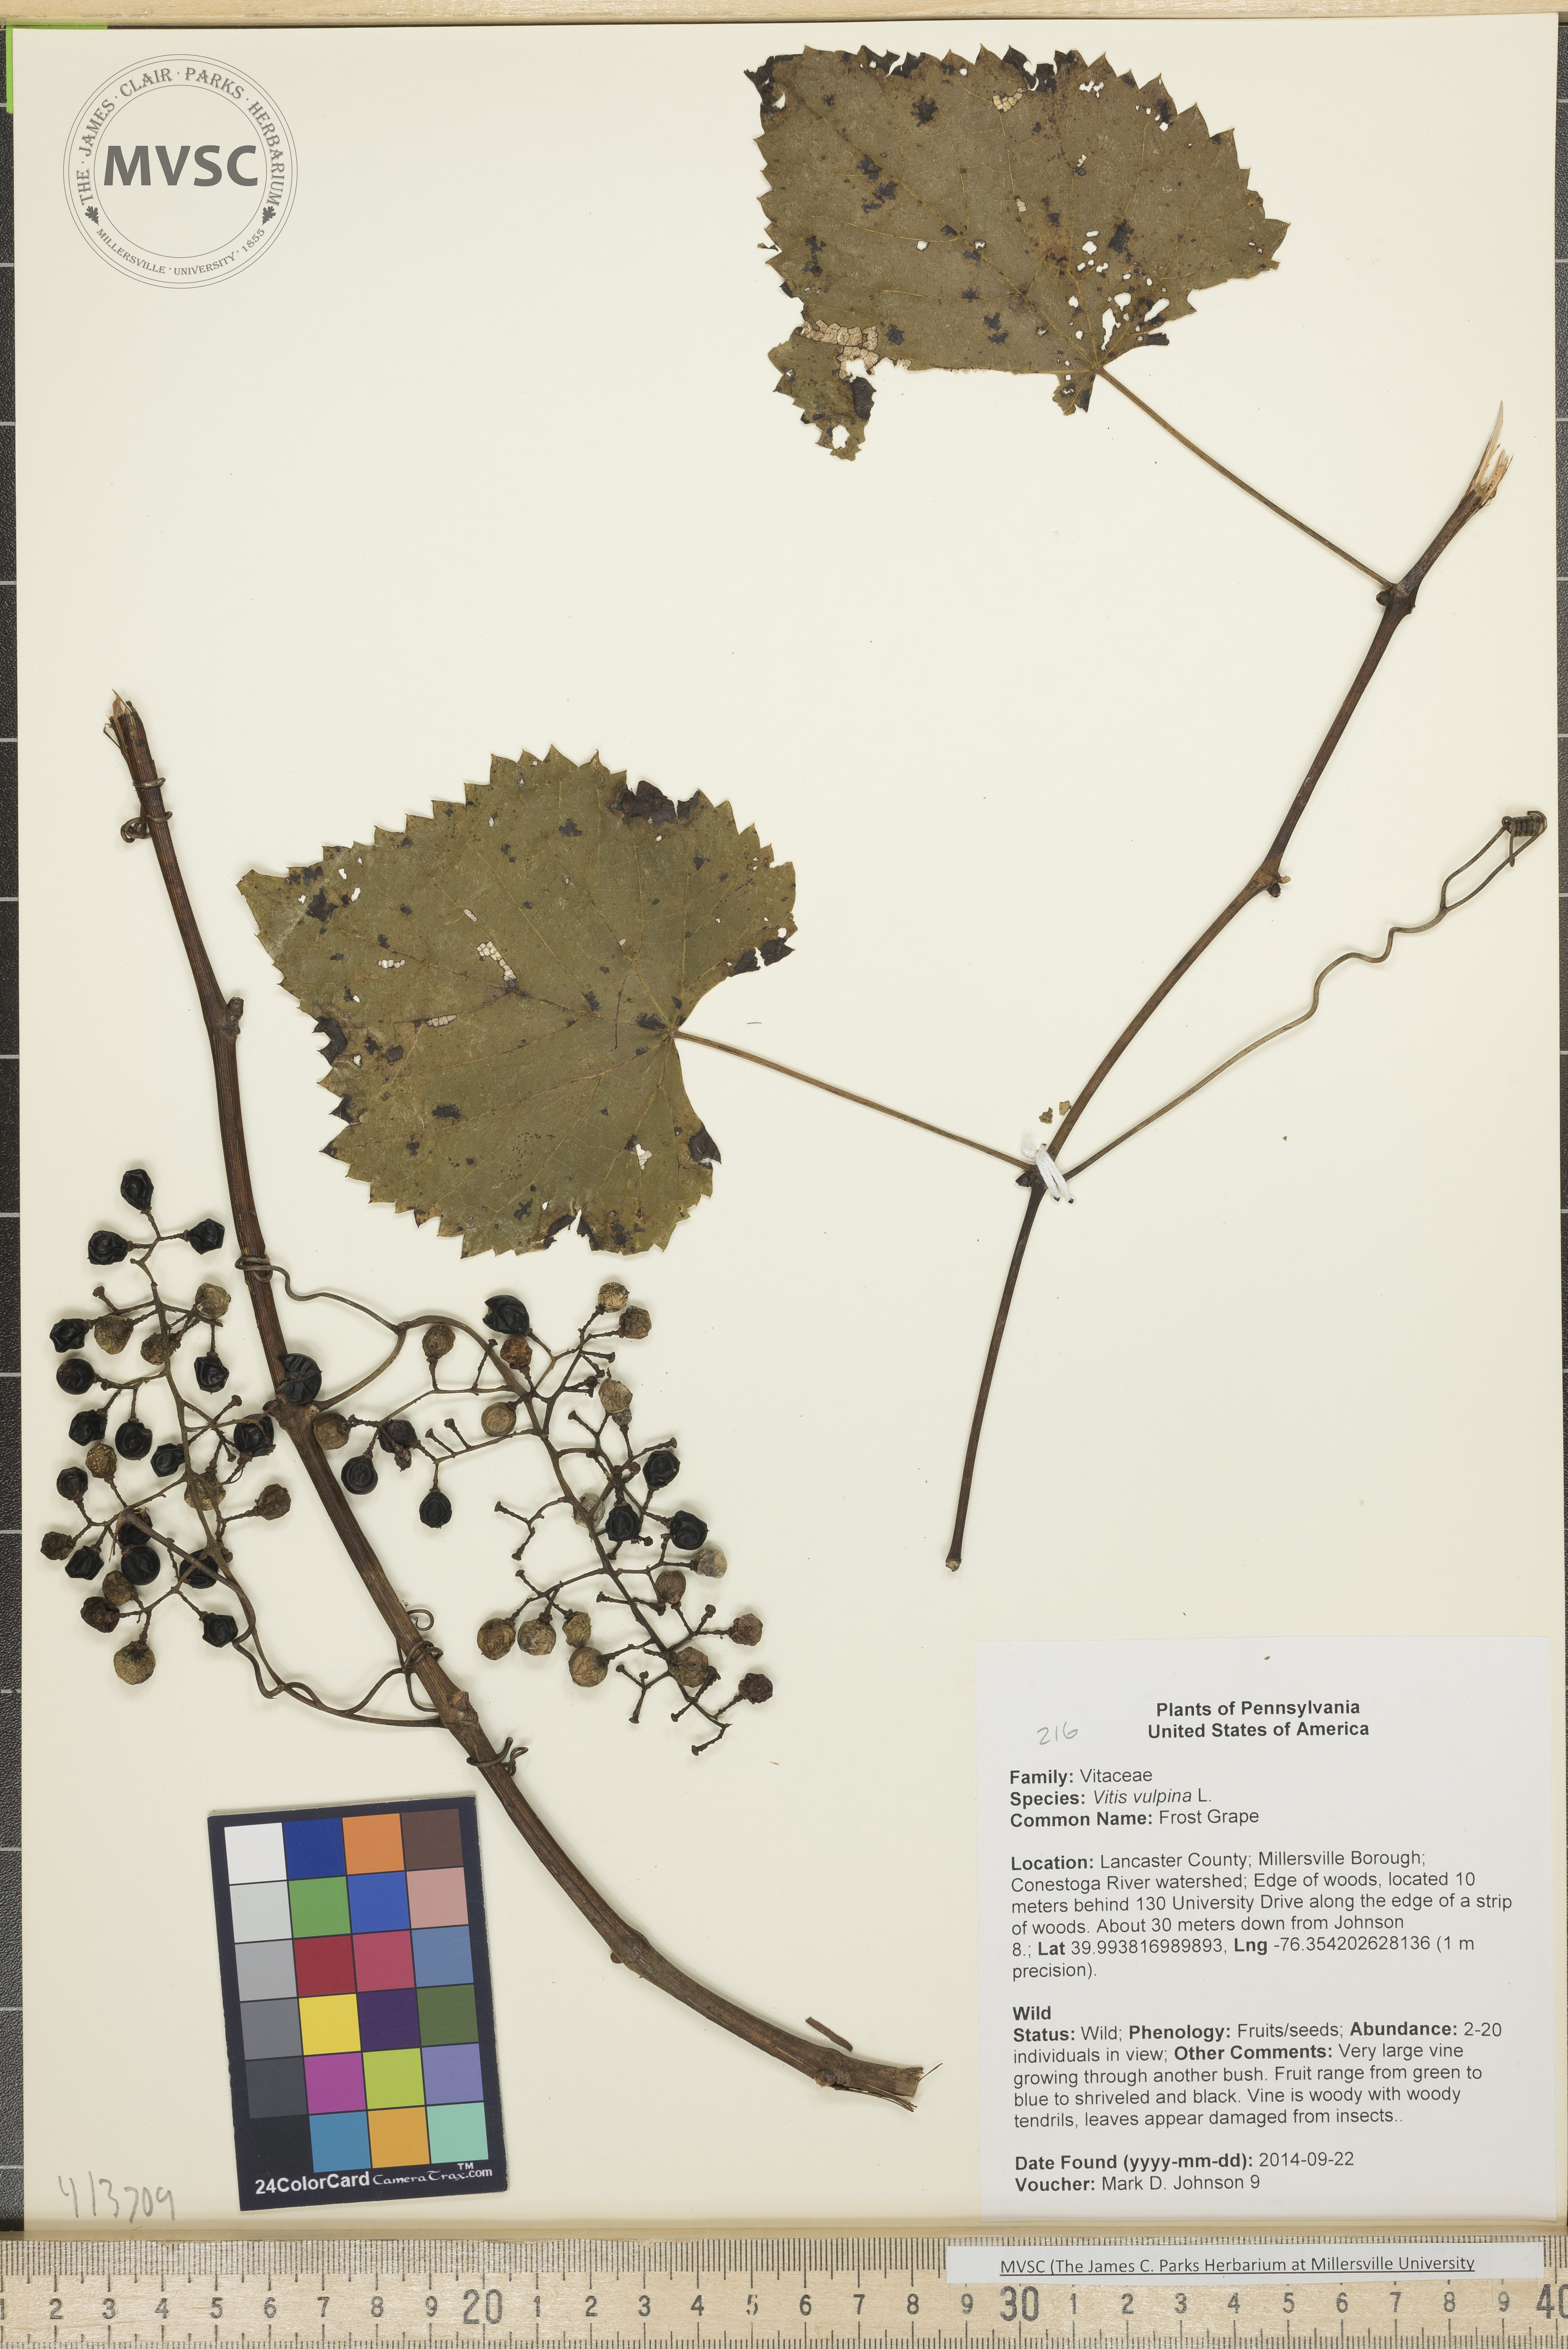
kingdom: Plantae
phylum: Tracheophyta
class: Magnoliopsida
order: Vitales
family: Vitaceae
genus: Vitis
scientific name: Vitis vulpina
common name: Frost Grape
